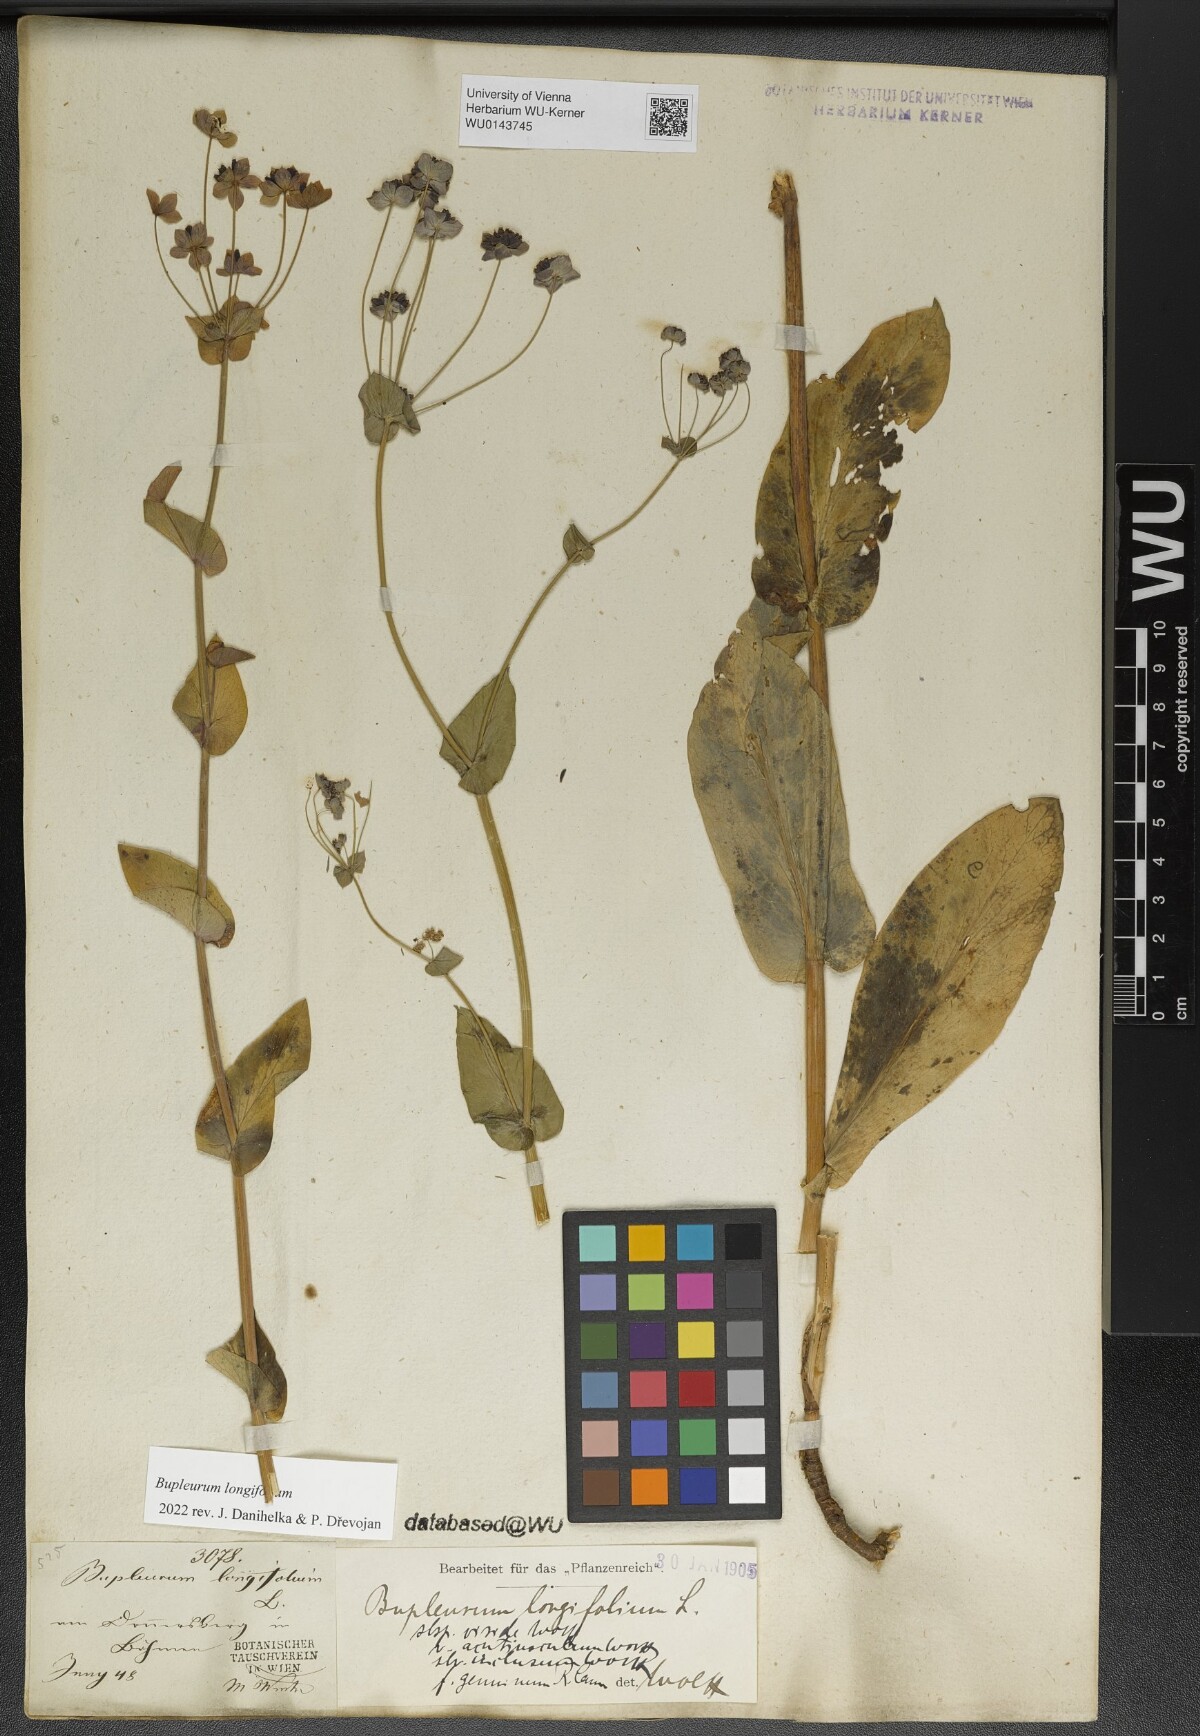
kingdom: Plantae
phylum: Tracheophyta
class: Magnoliopsida
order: Apiales
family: Apiaceae
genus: Bupleurum
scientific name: Bupleurum longifolium
